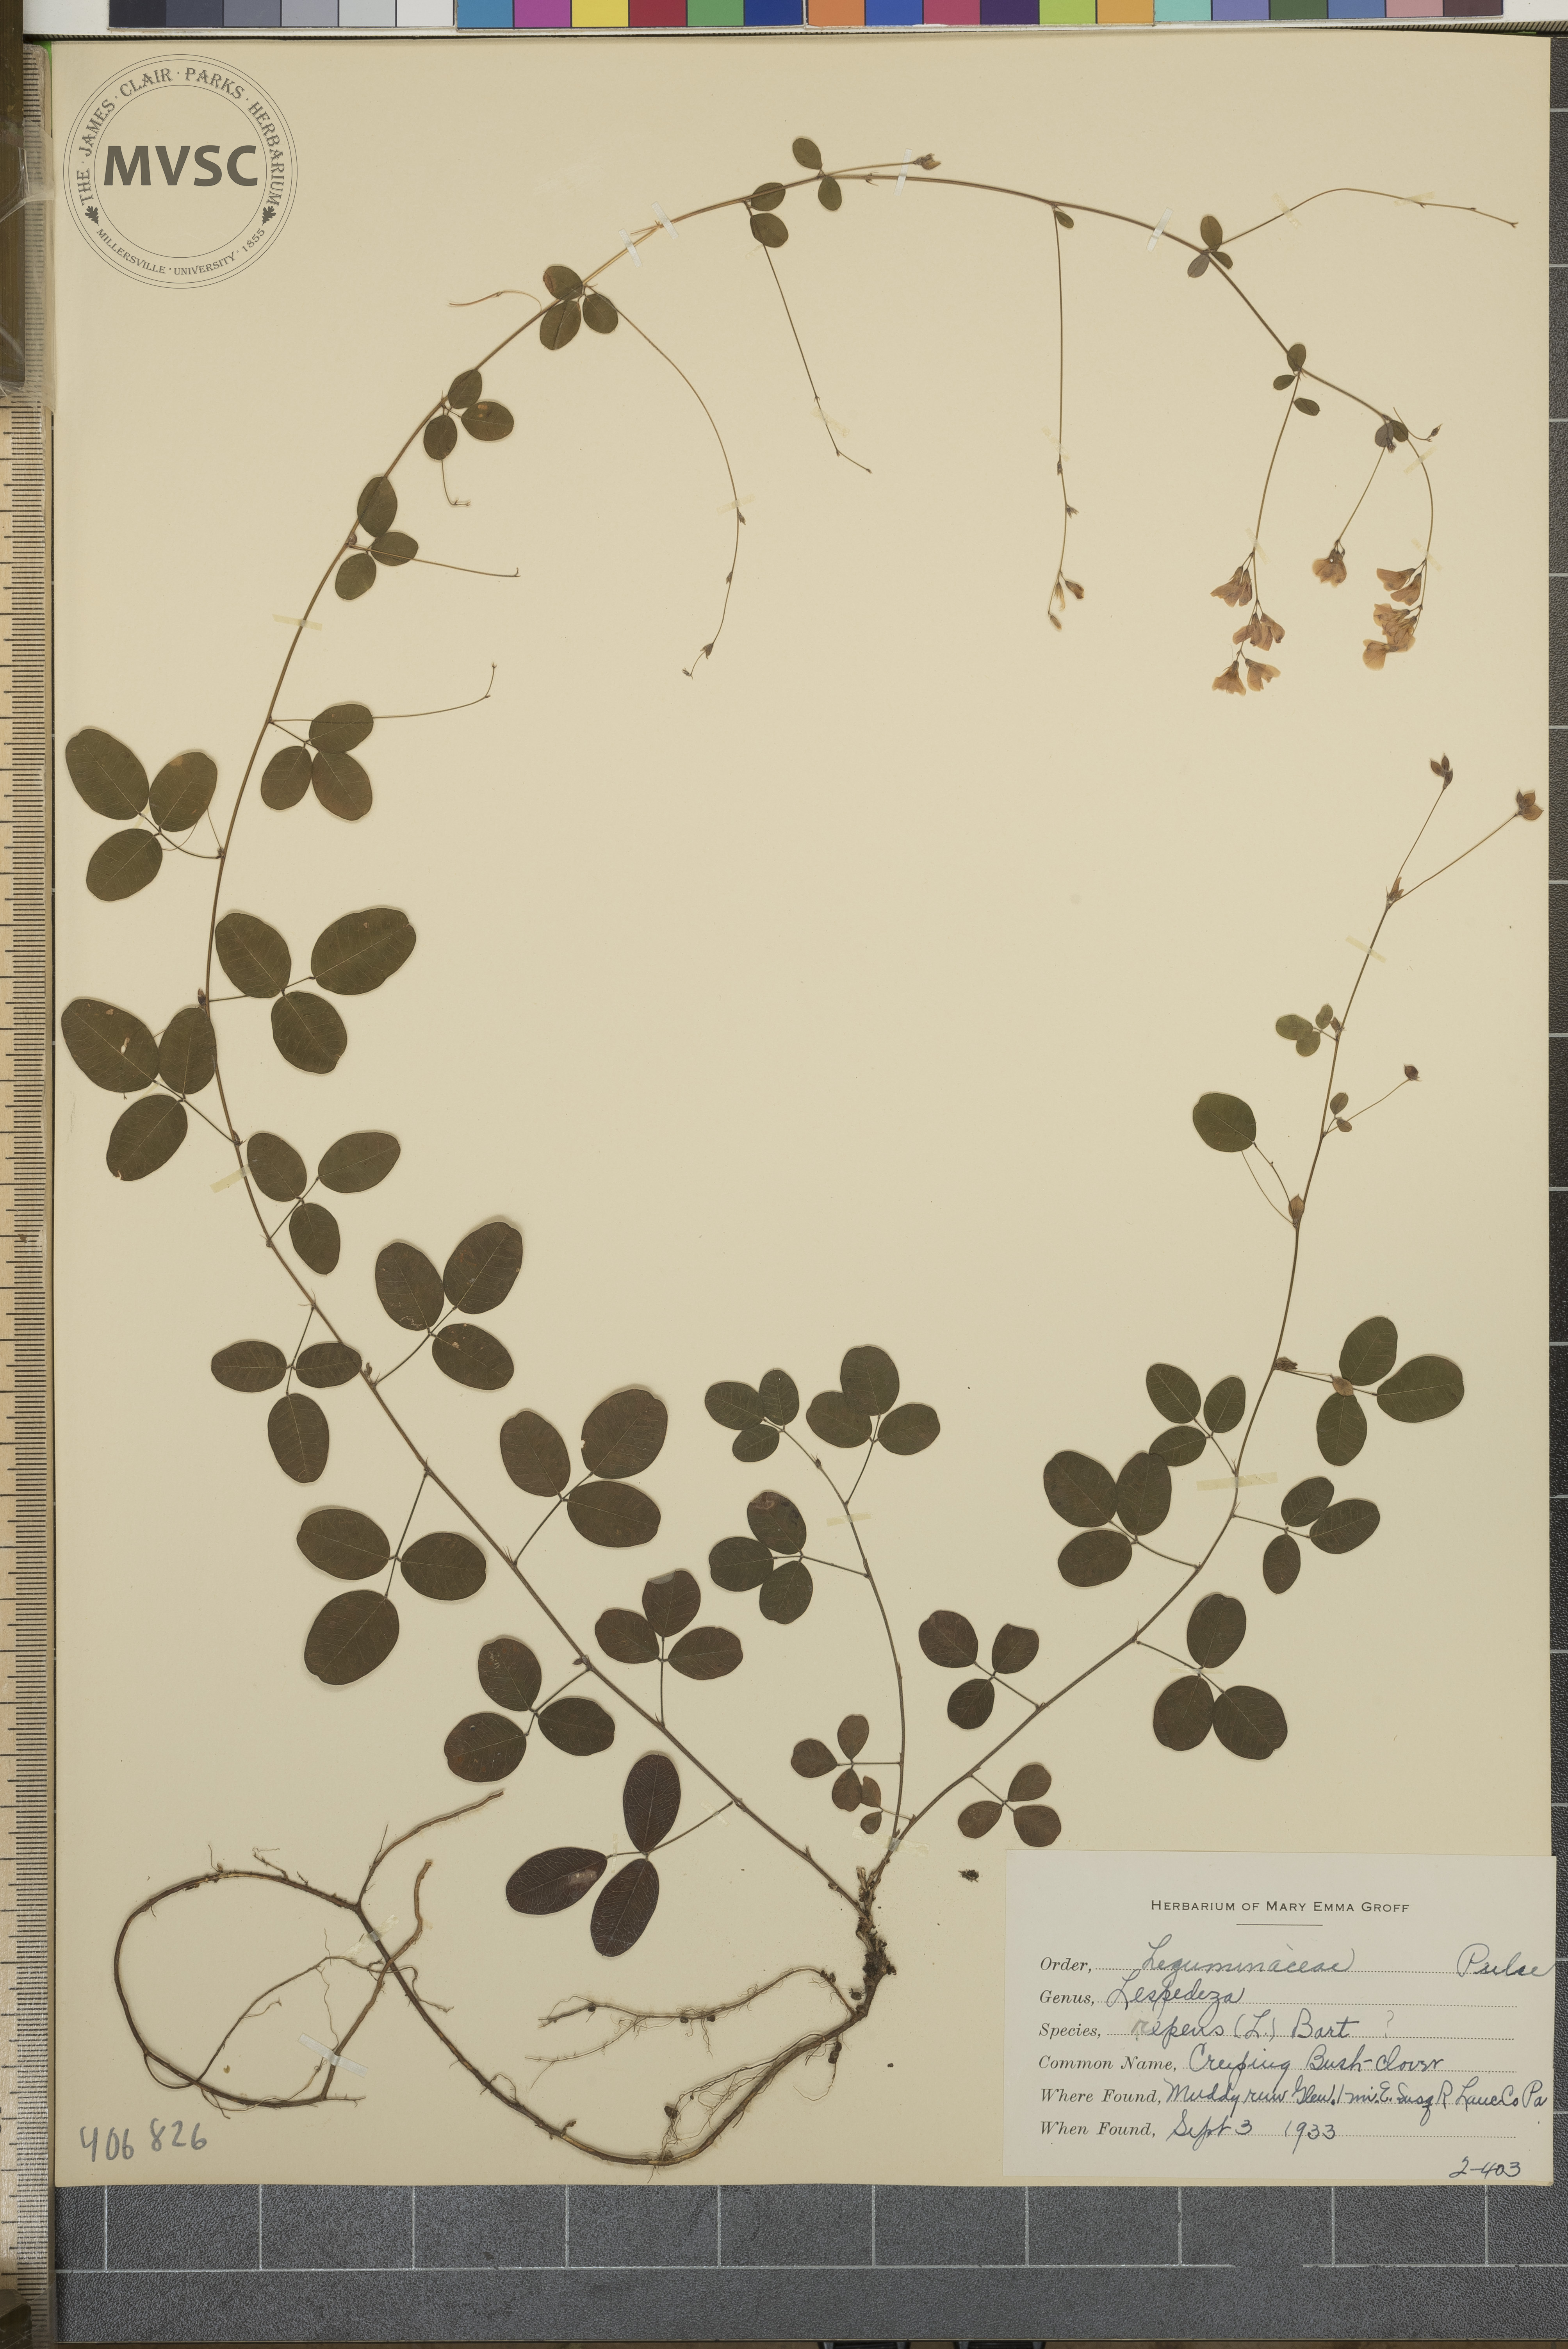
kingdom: Plantae
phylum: Tracheophyta
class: Magnoliopsida
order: Fabales
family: Fabaceae
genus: Lespedeza
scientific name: Lespedeza repens
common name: Creeping Bush-clover
